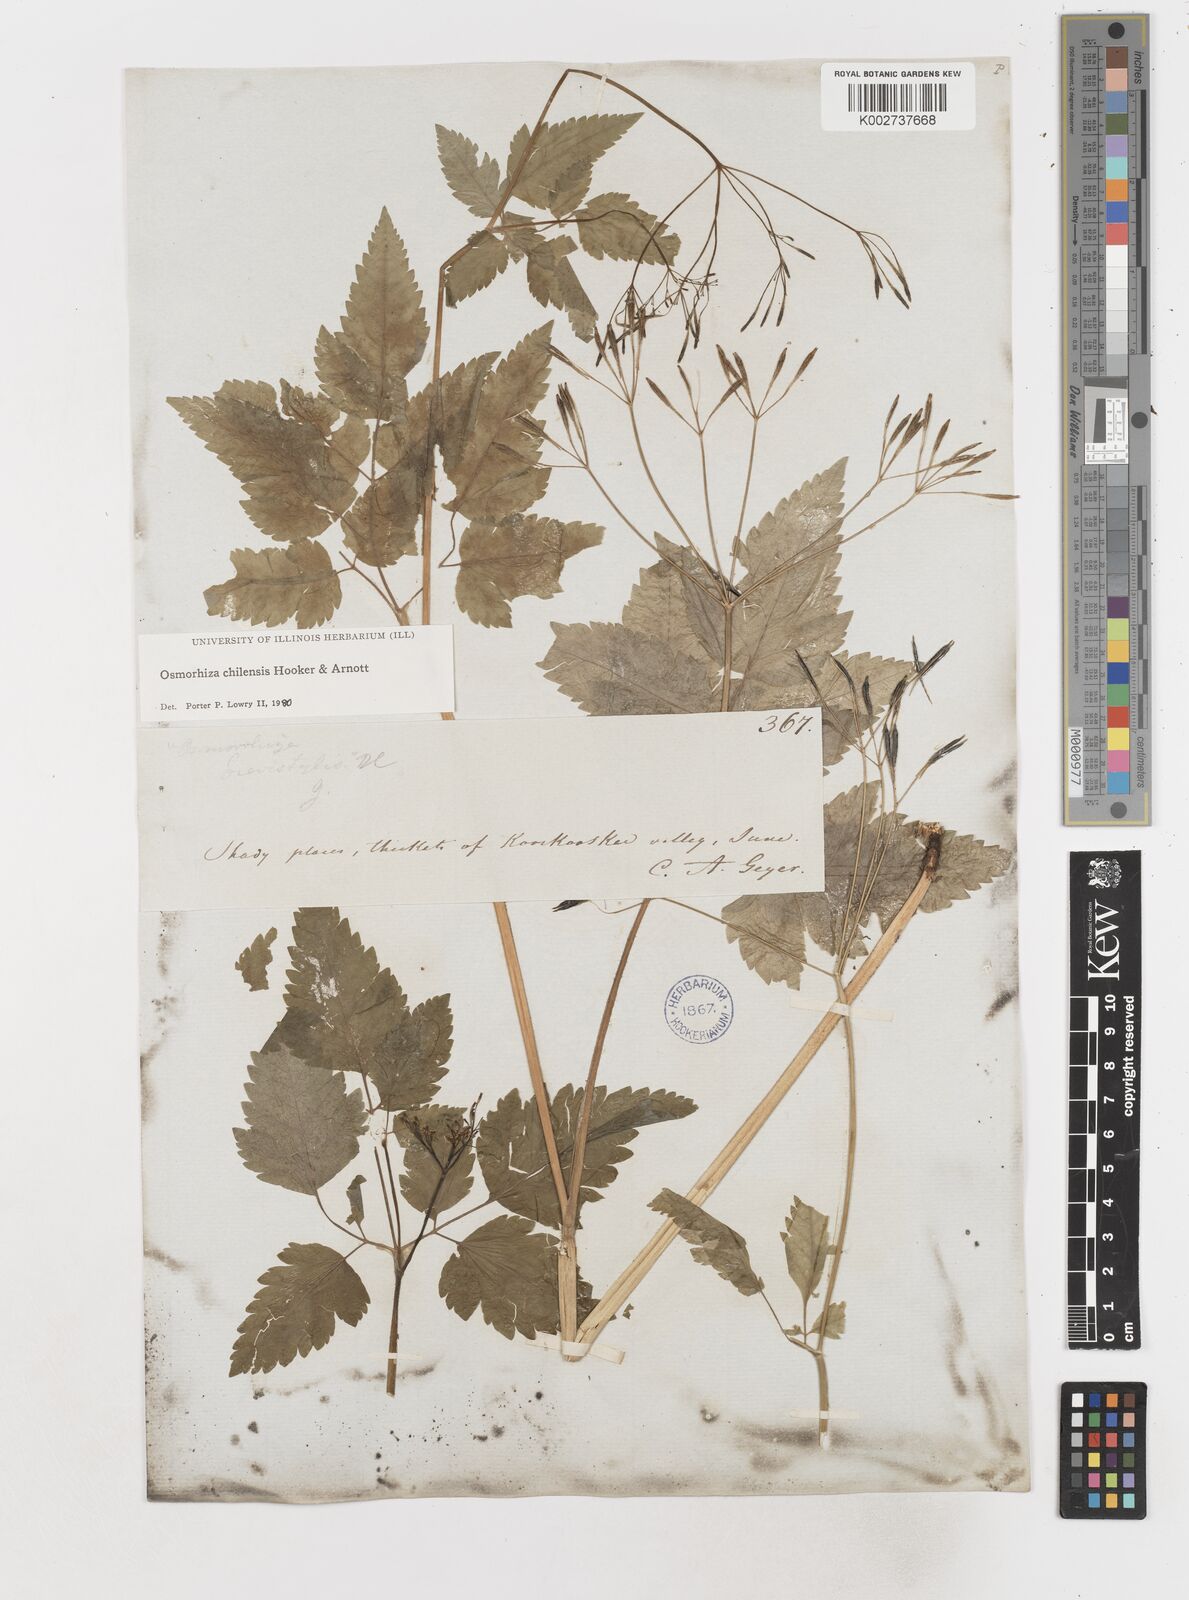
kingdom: Plantae
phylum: Tracheophyta
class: Magnoliopsida
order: Apiales
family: Apiaceae
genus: Osmorhiza
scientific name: Osmorhiza berteroi
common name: Mountain sweet cicely
